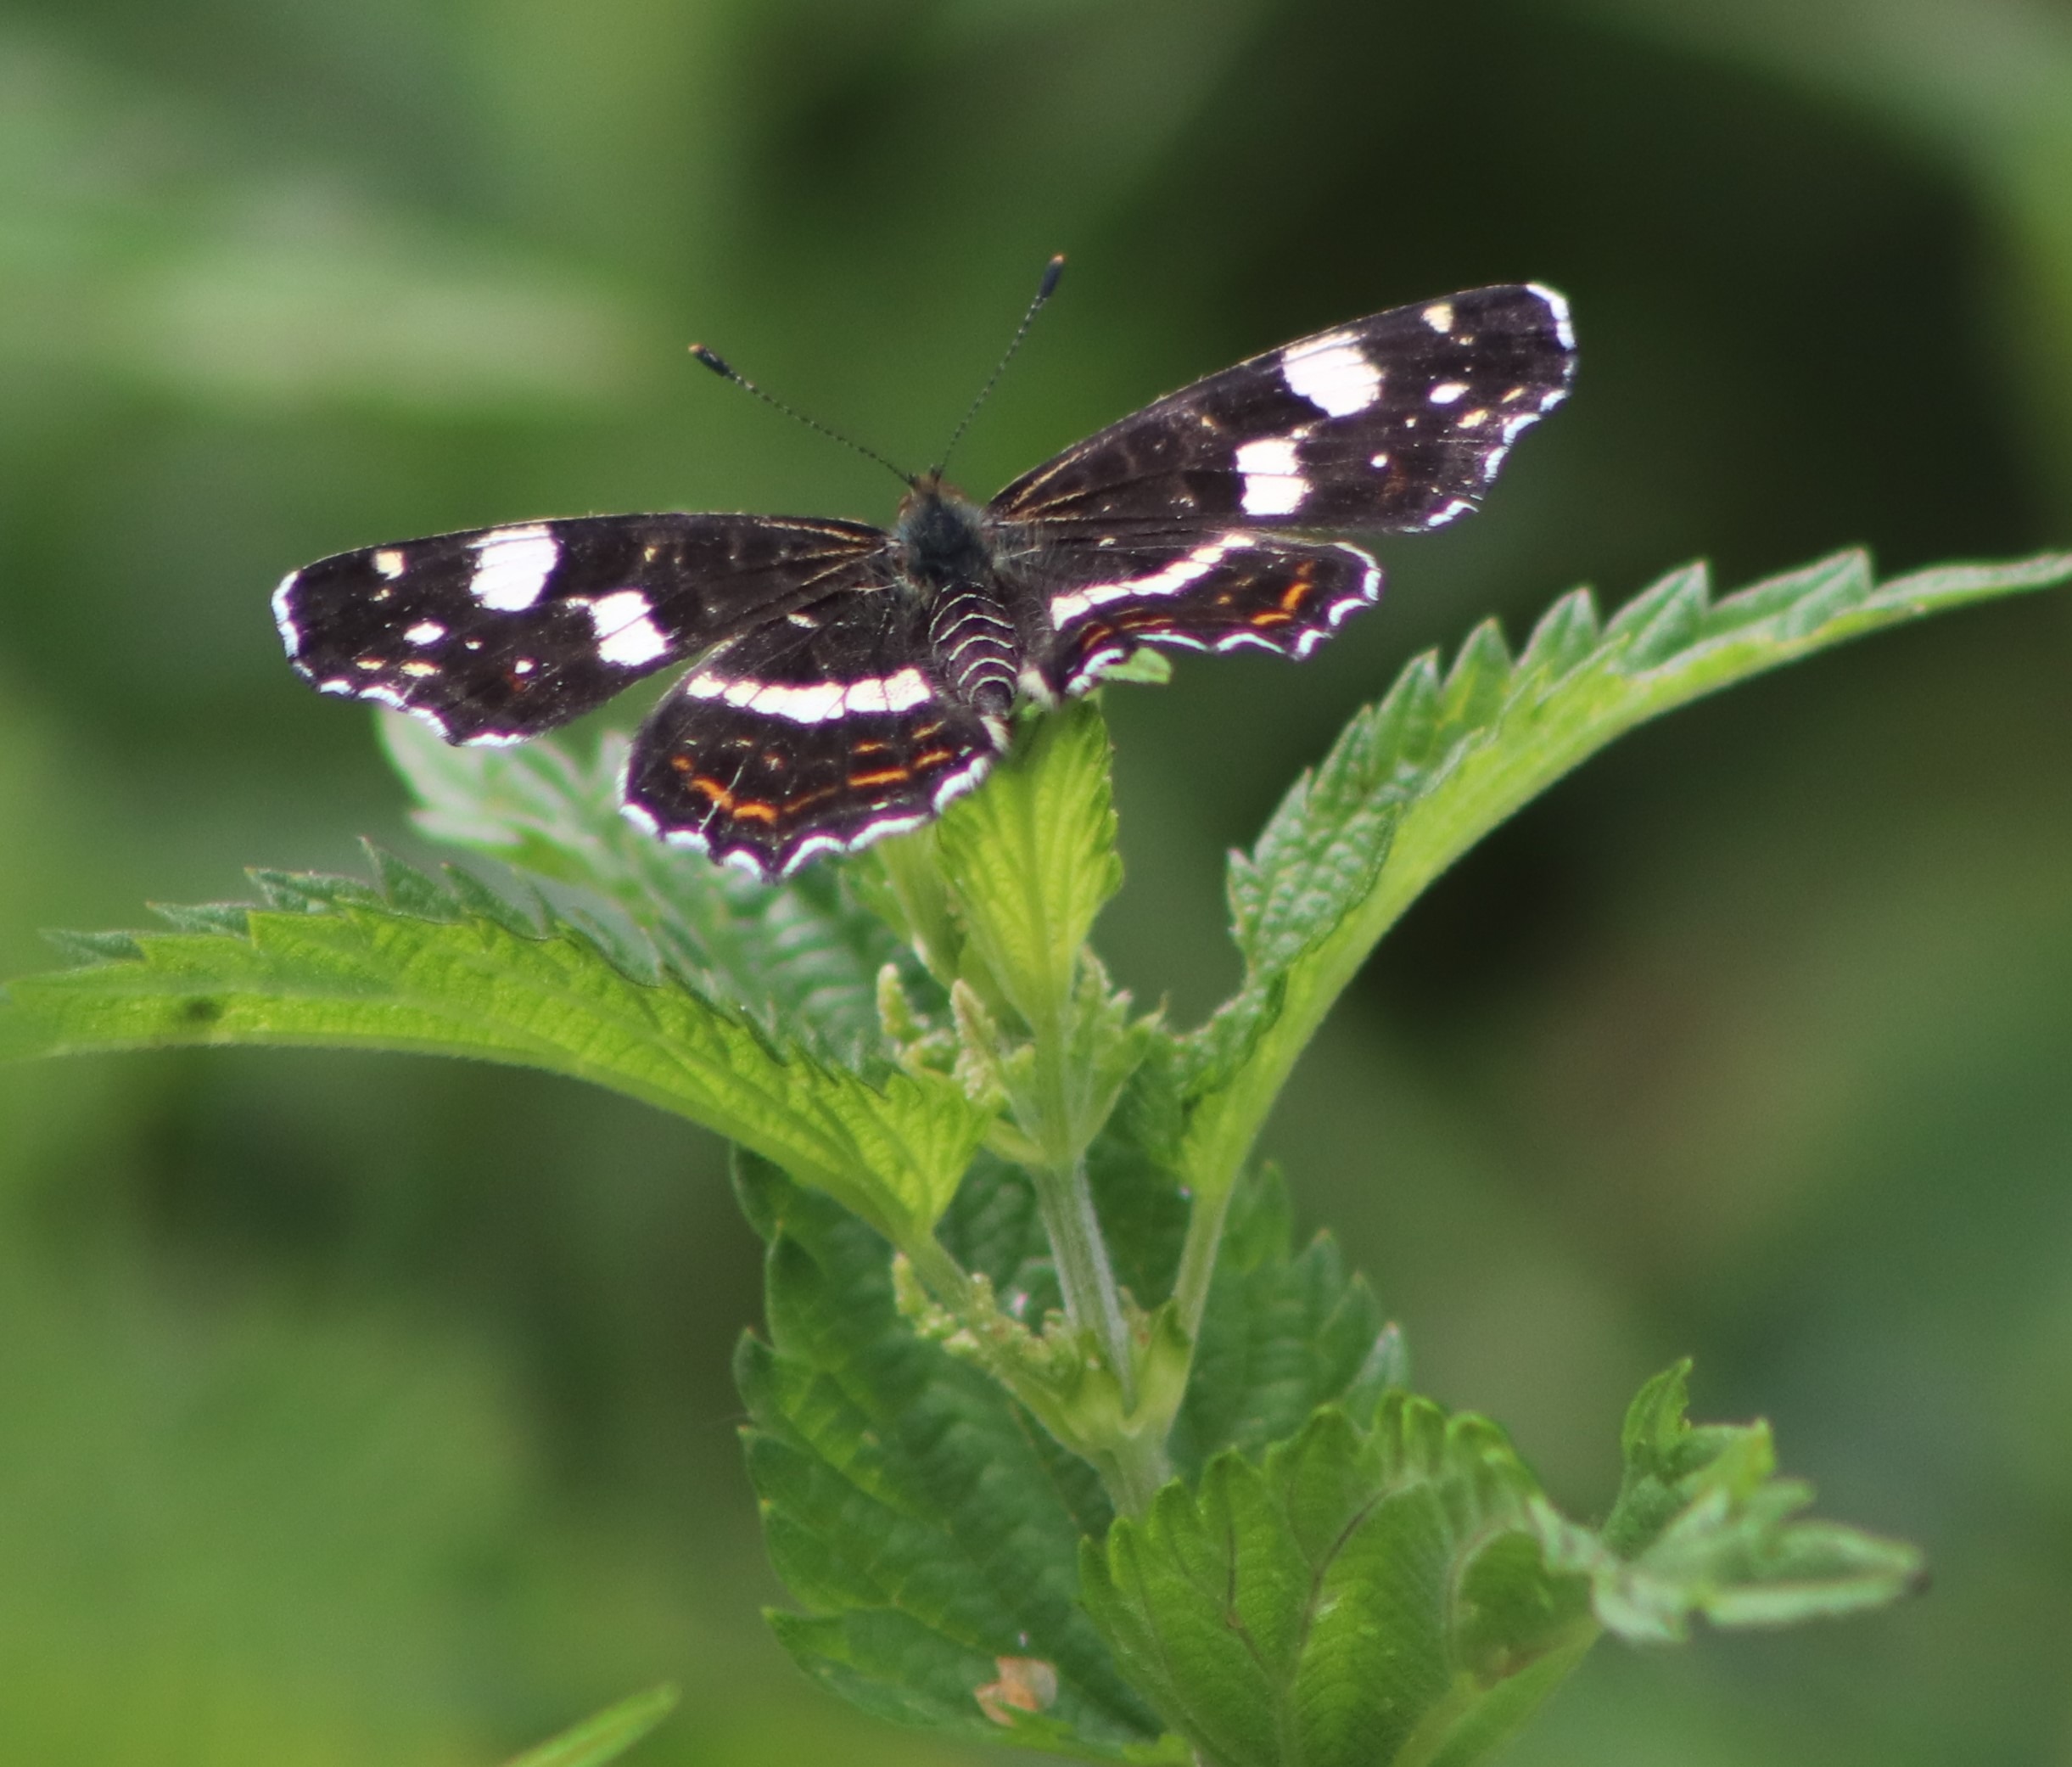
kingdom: Animalia
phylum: Arthropoda
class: Insecta
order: Lepidoptera
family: Nymphalidae
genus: Araschnia
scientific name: Araschnia levana
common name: Nældesommerfugl
